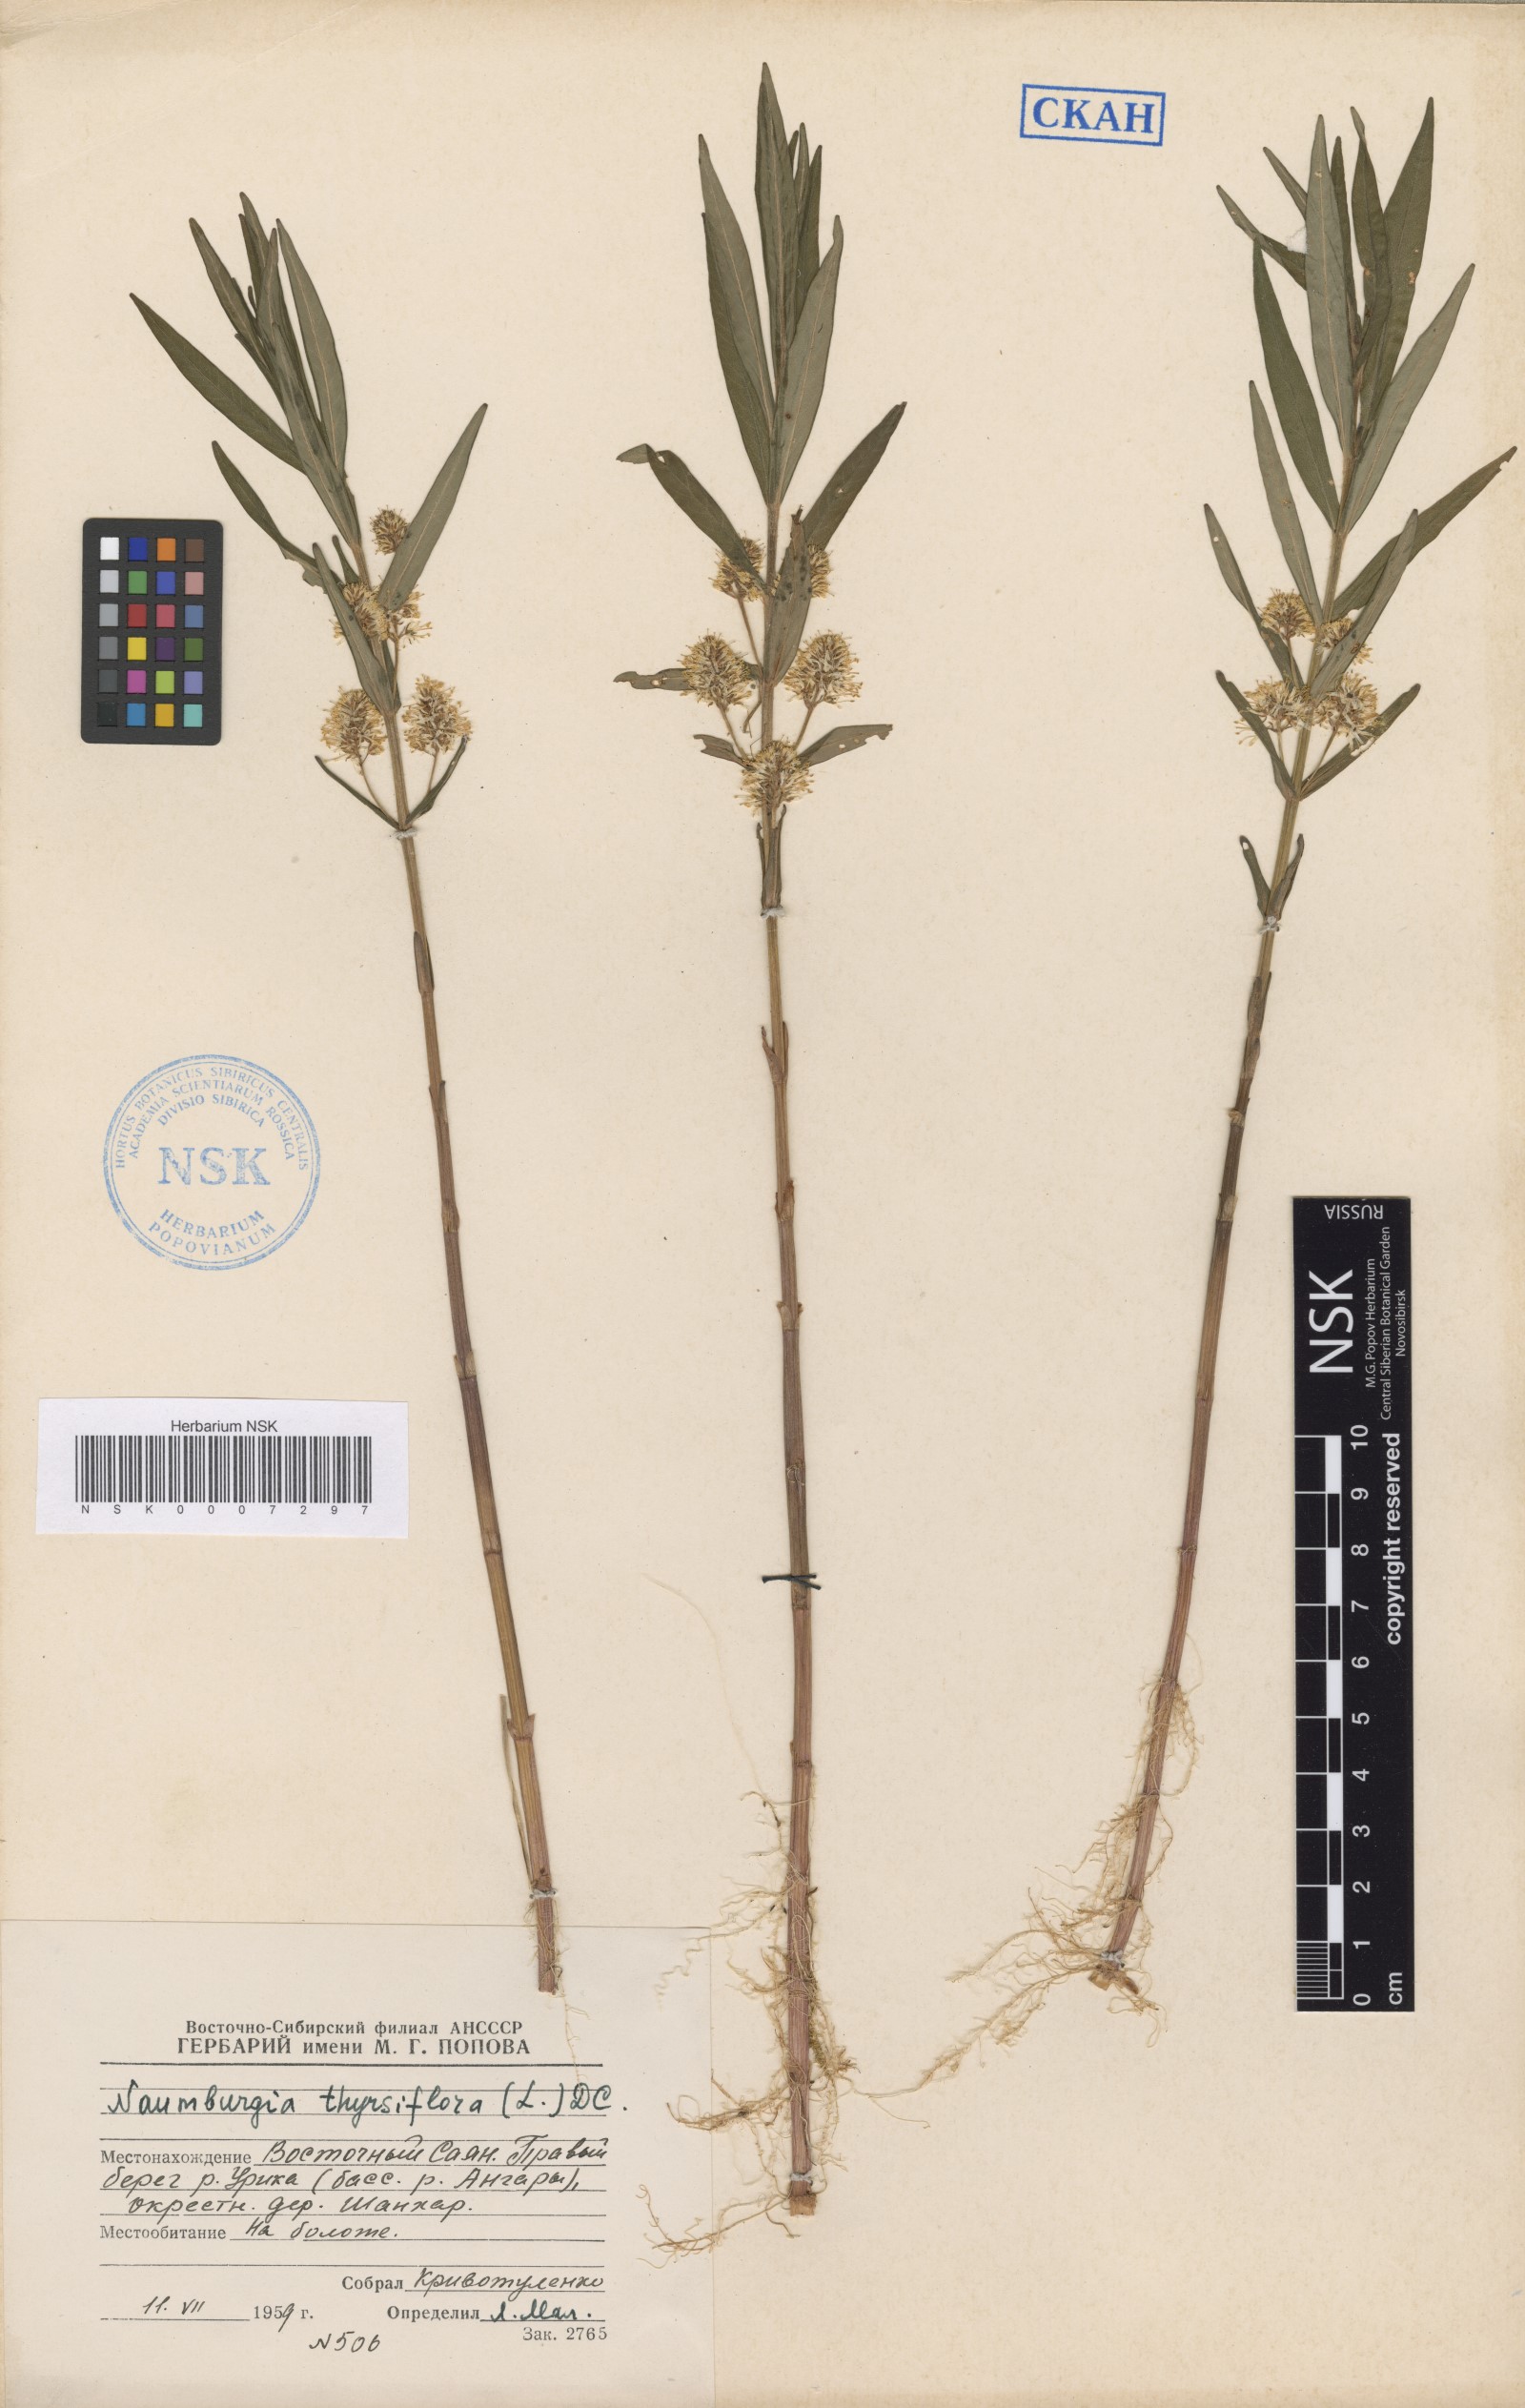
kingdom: Plantae
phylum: Tracheophyta
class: Magnoliopsida
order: Ericales
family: Primulaceae
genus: Lysimachia
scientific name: Lysimachia thyrsiflora
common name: Tufted loosestrife
